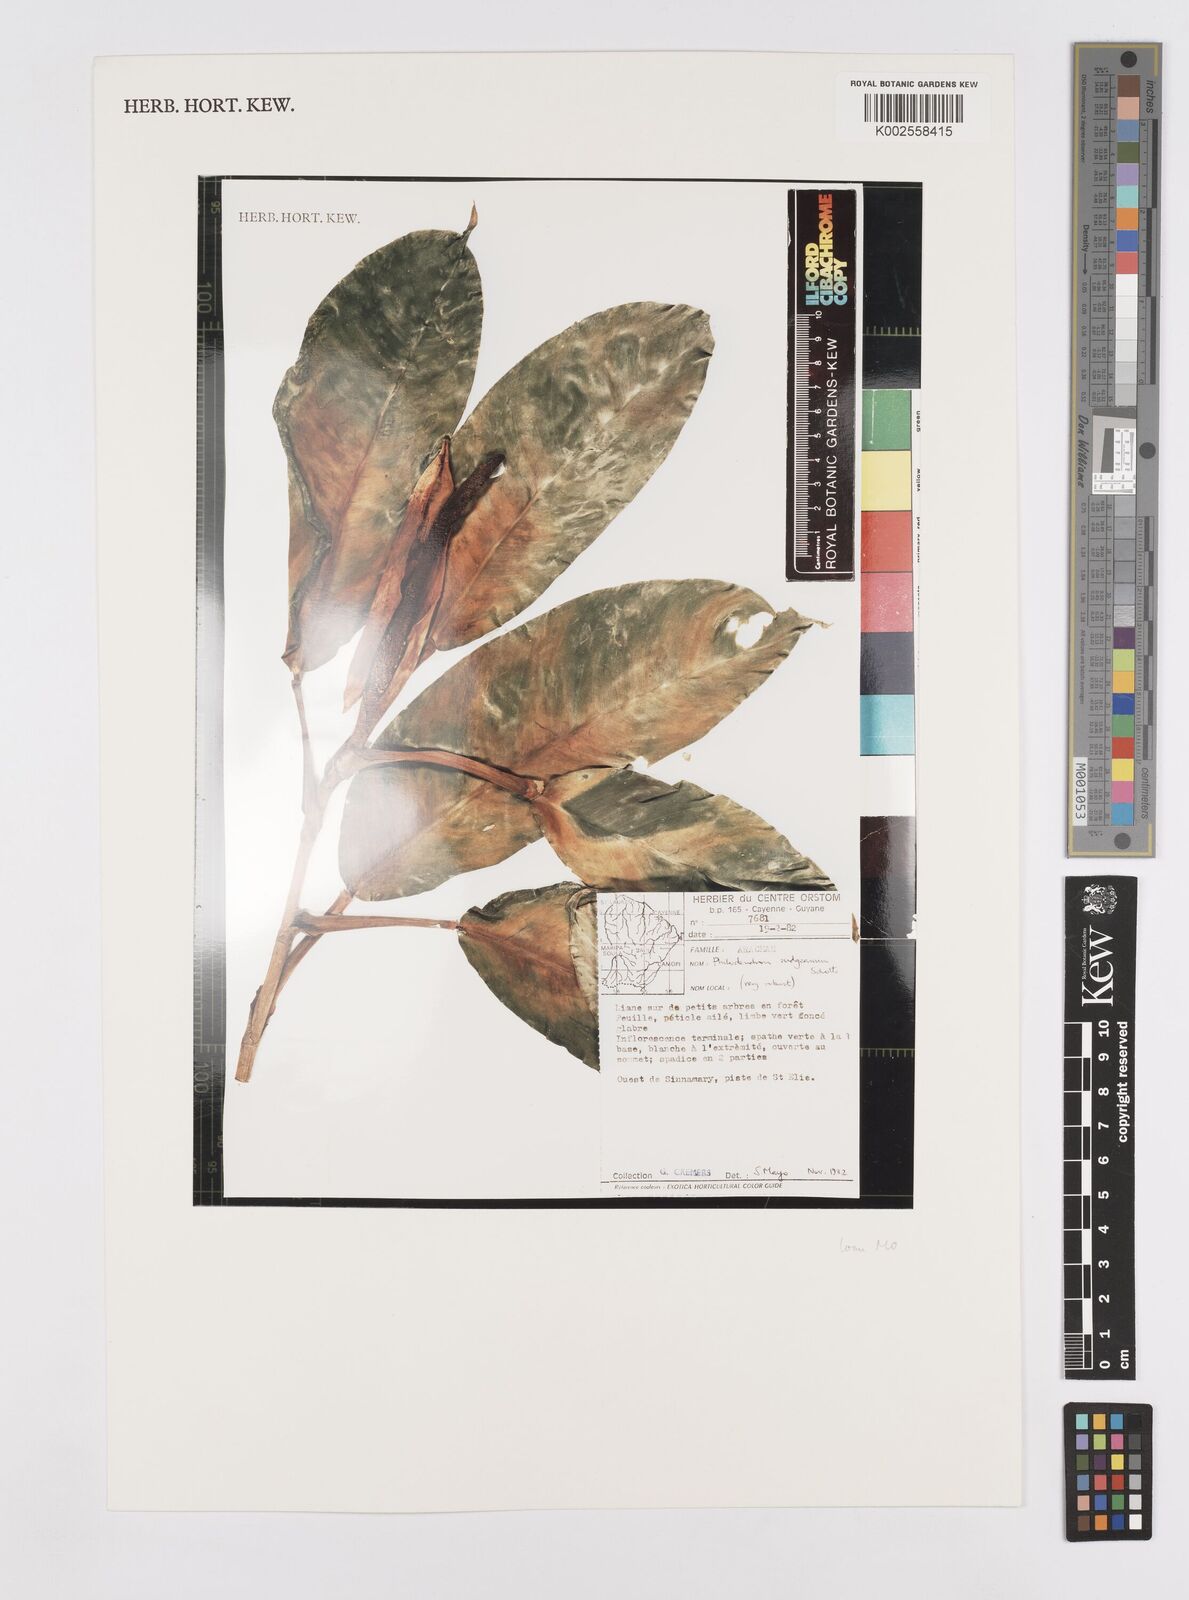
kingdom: Plantae
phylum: Tracheophyta
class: Liliopsida
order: Alismatales
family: Araceae
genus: Philodendron
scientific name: Philodendron rudgeanum
